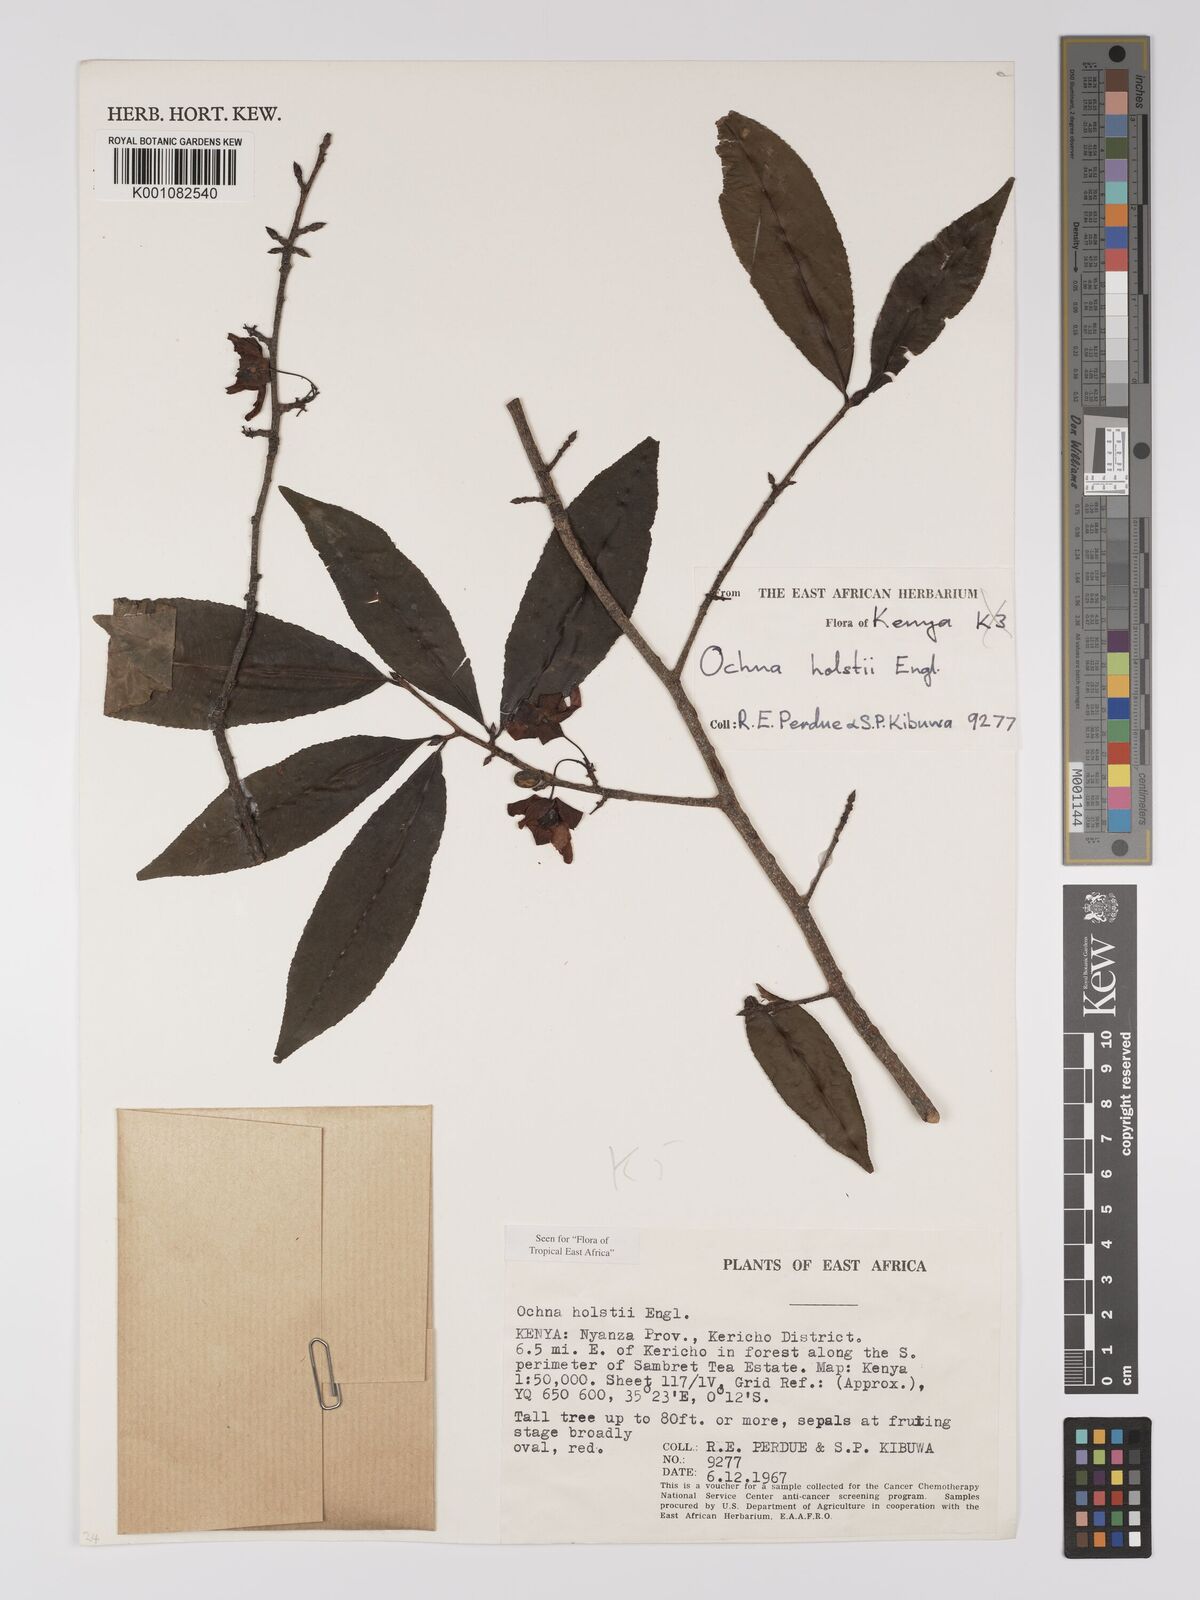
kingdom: Plantae
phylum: Tracheophyta
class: Magnoliopsida
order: Malpighiales
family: Ochnaceae
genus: Ochna
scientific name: Ochna holstii
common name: Red ironwood
